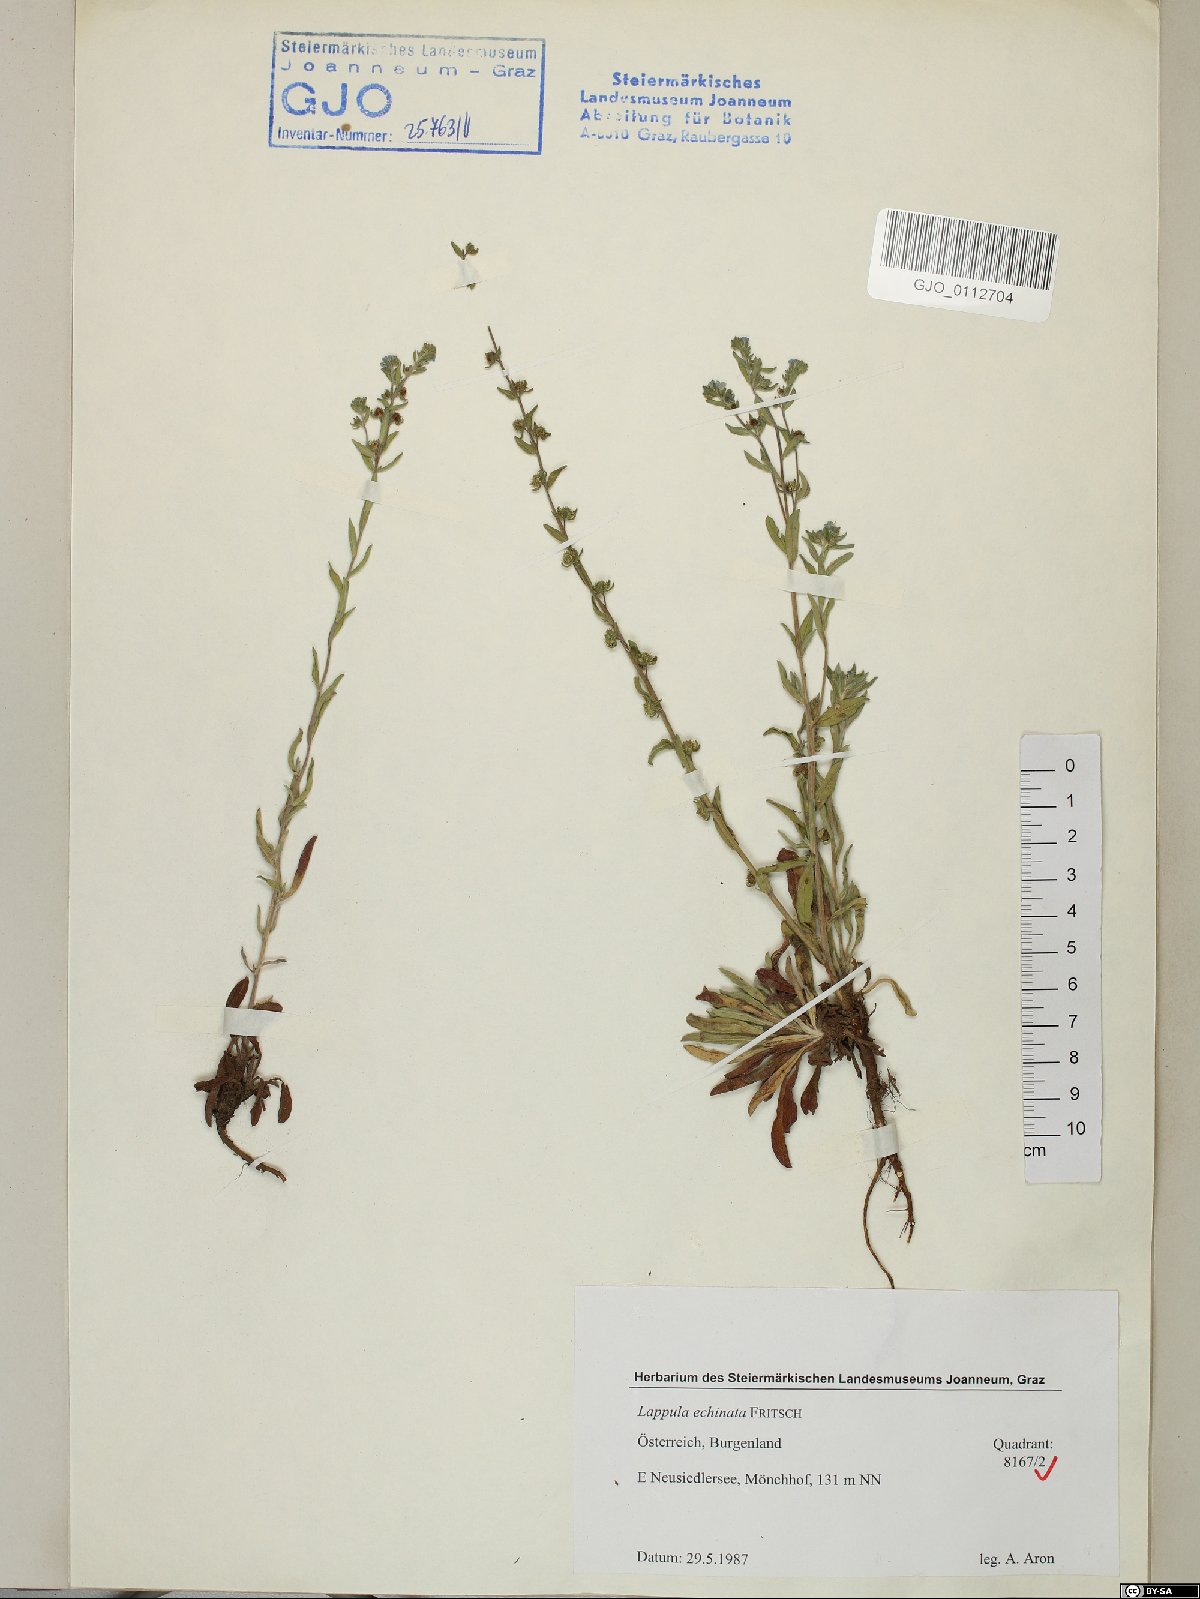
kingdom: Plantae
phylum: Tracheophyta
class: Magnoliopsida
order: Boraginales
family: Boraginaceae
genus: Lappula
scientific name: Lappula squarrosa
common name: European stickseed
